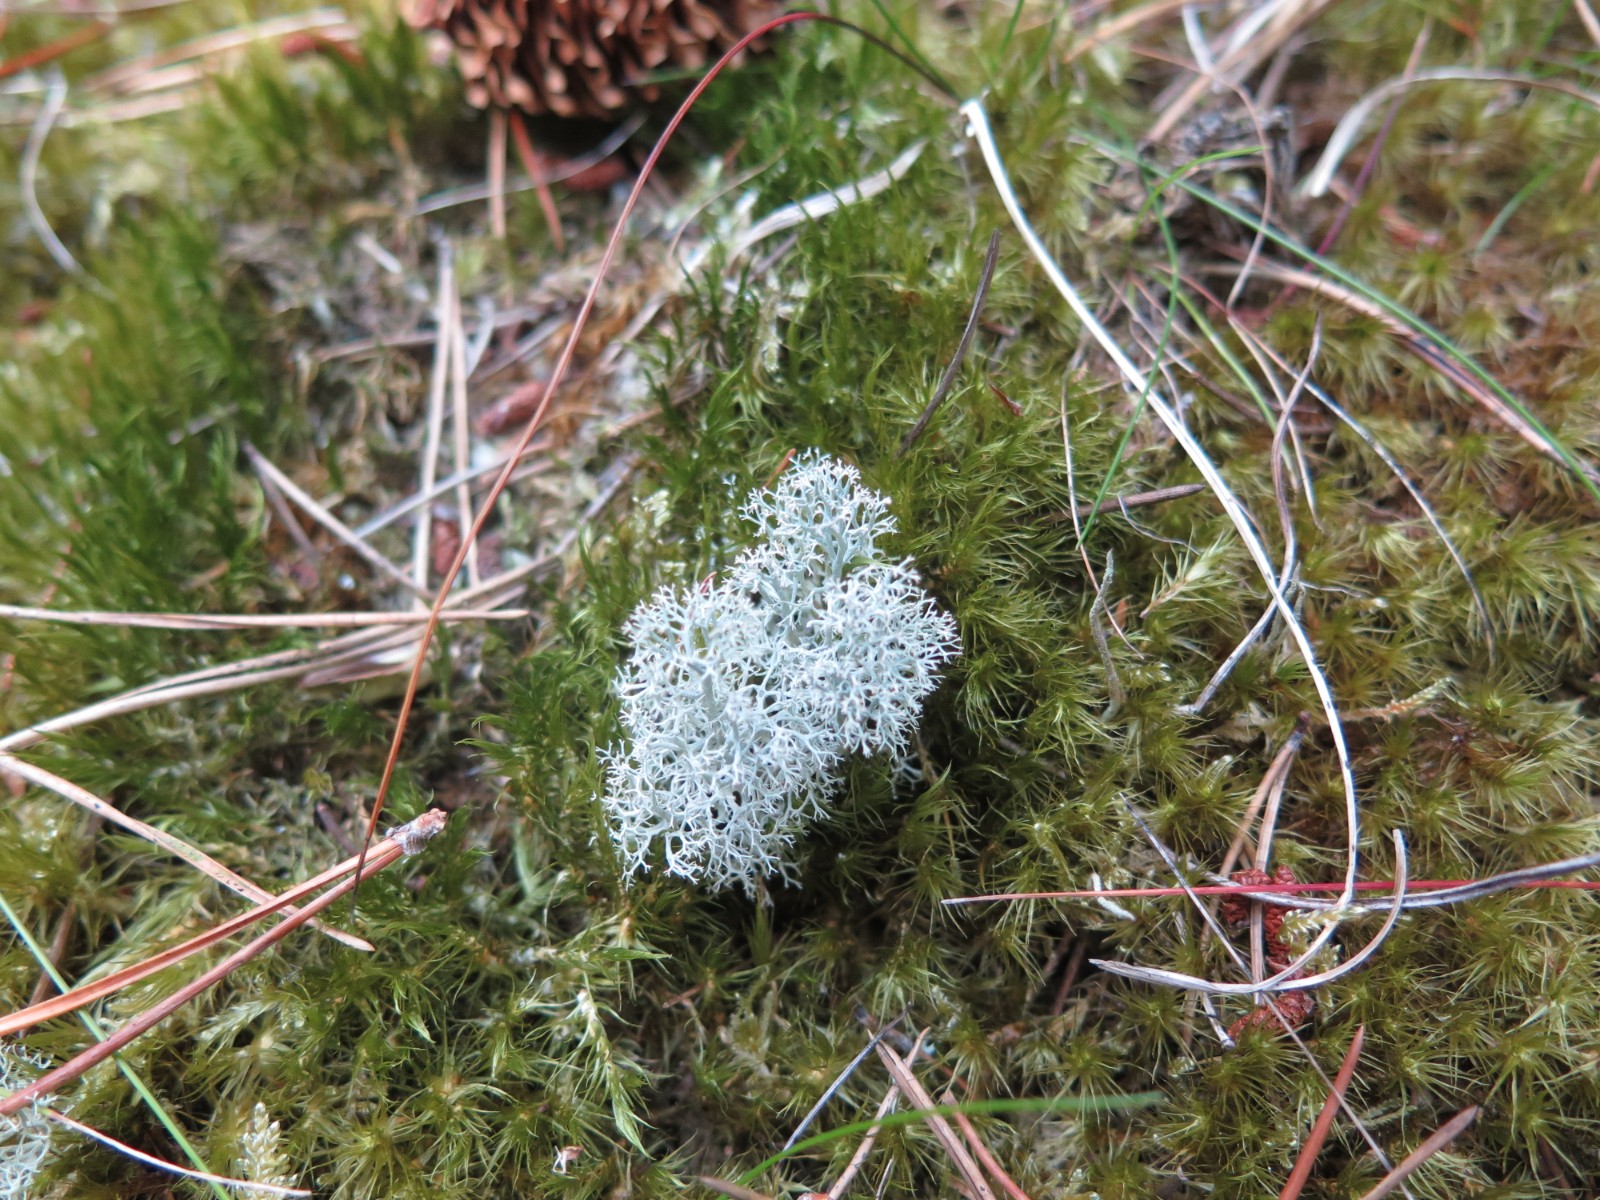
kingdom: Fungi
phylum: Ascomycota
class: Lecanoromycetes
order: Lecanorales
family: Cladoniaceae
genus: Cladonia
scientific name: Cladonia portentosa
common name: hede-rensdyrlav
